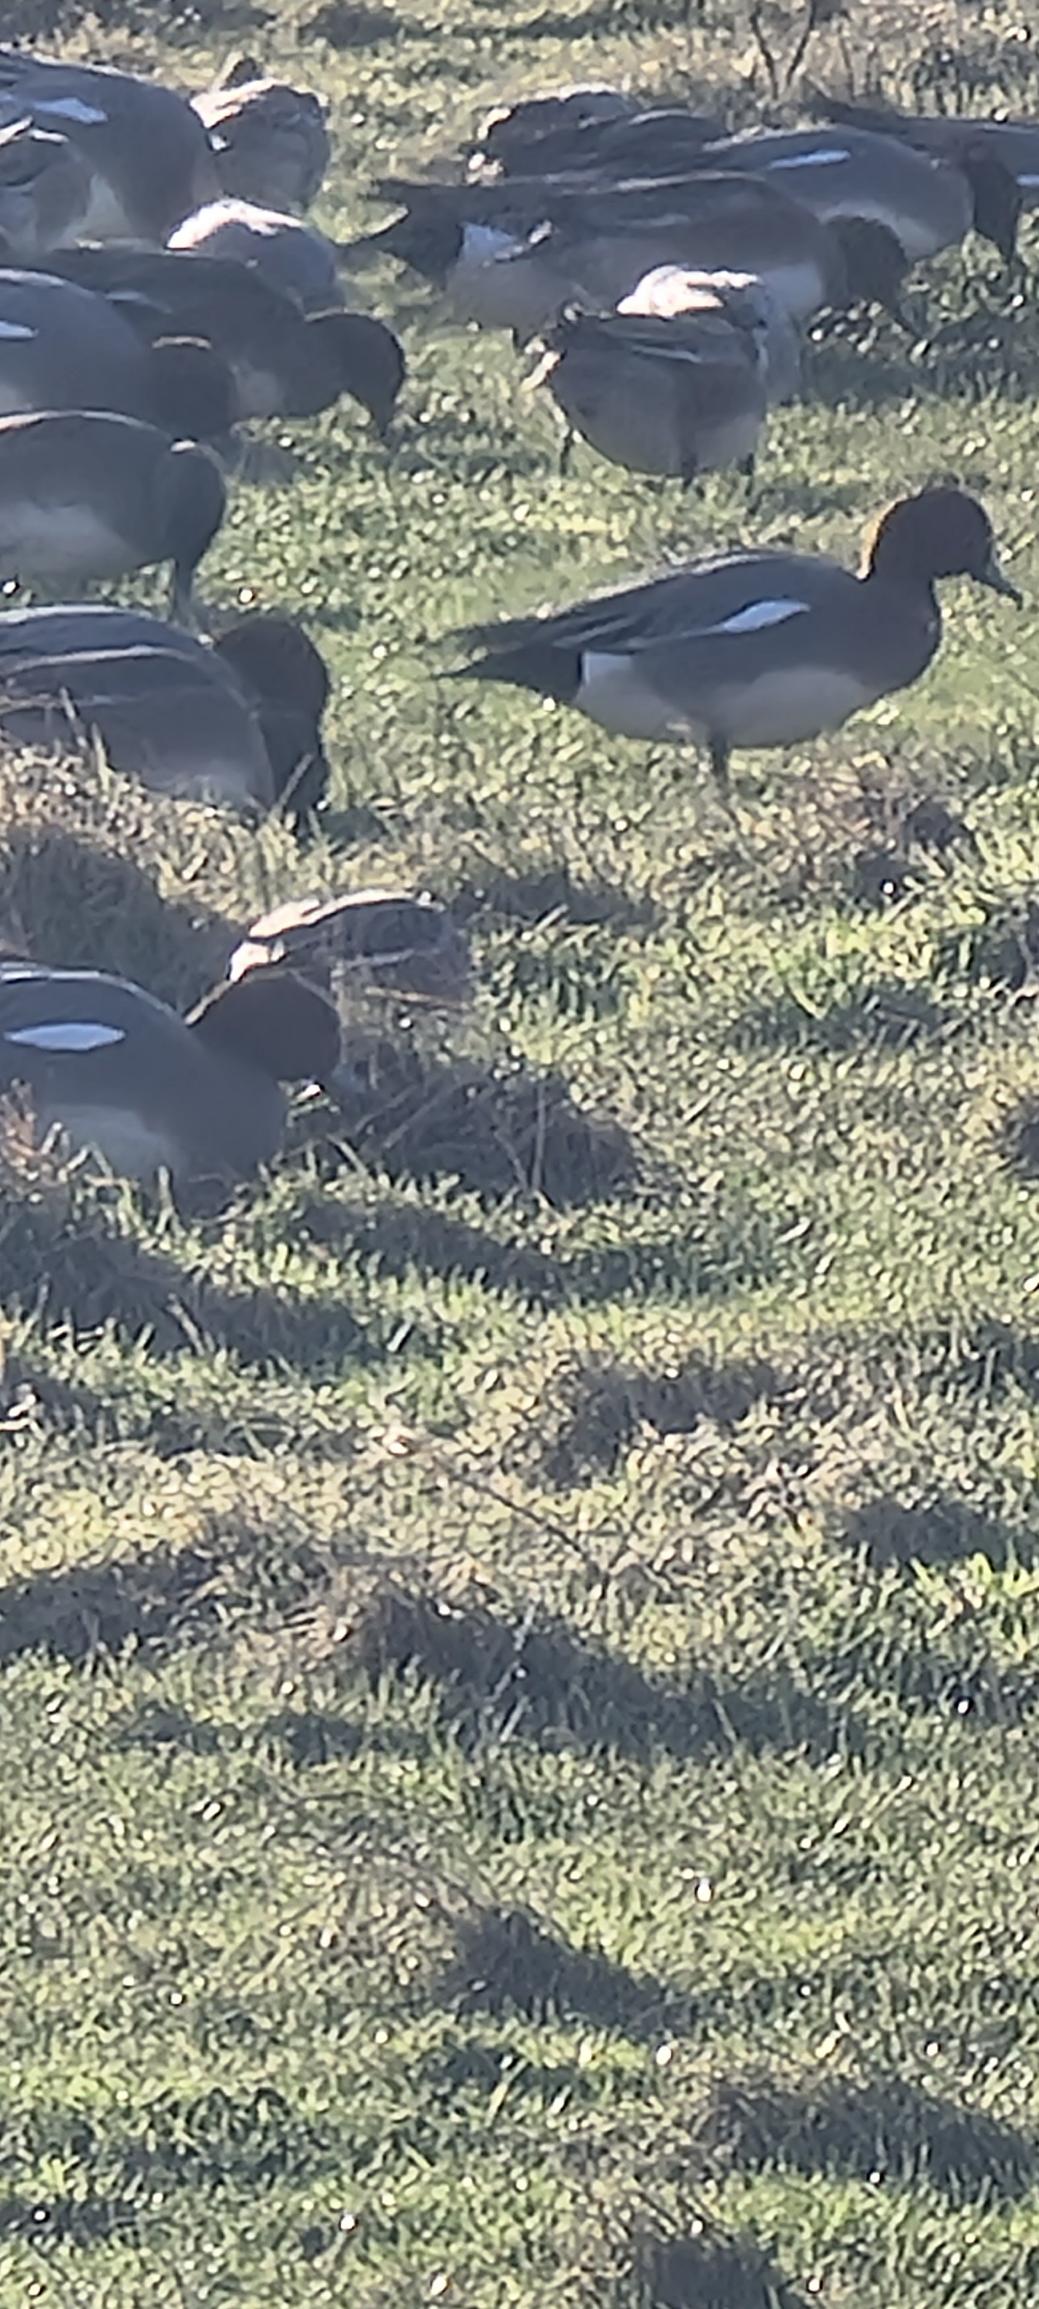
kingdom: Animalia
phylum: Chordata
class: Aves
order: Anseriformes
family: Anatidae
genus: Mareca
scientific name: Mareca penelope
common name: Pibeand
